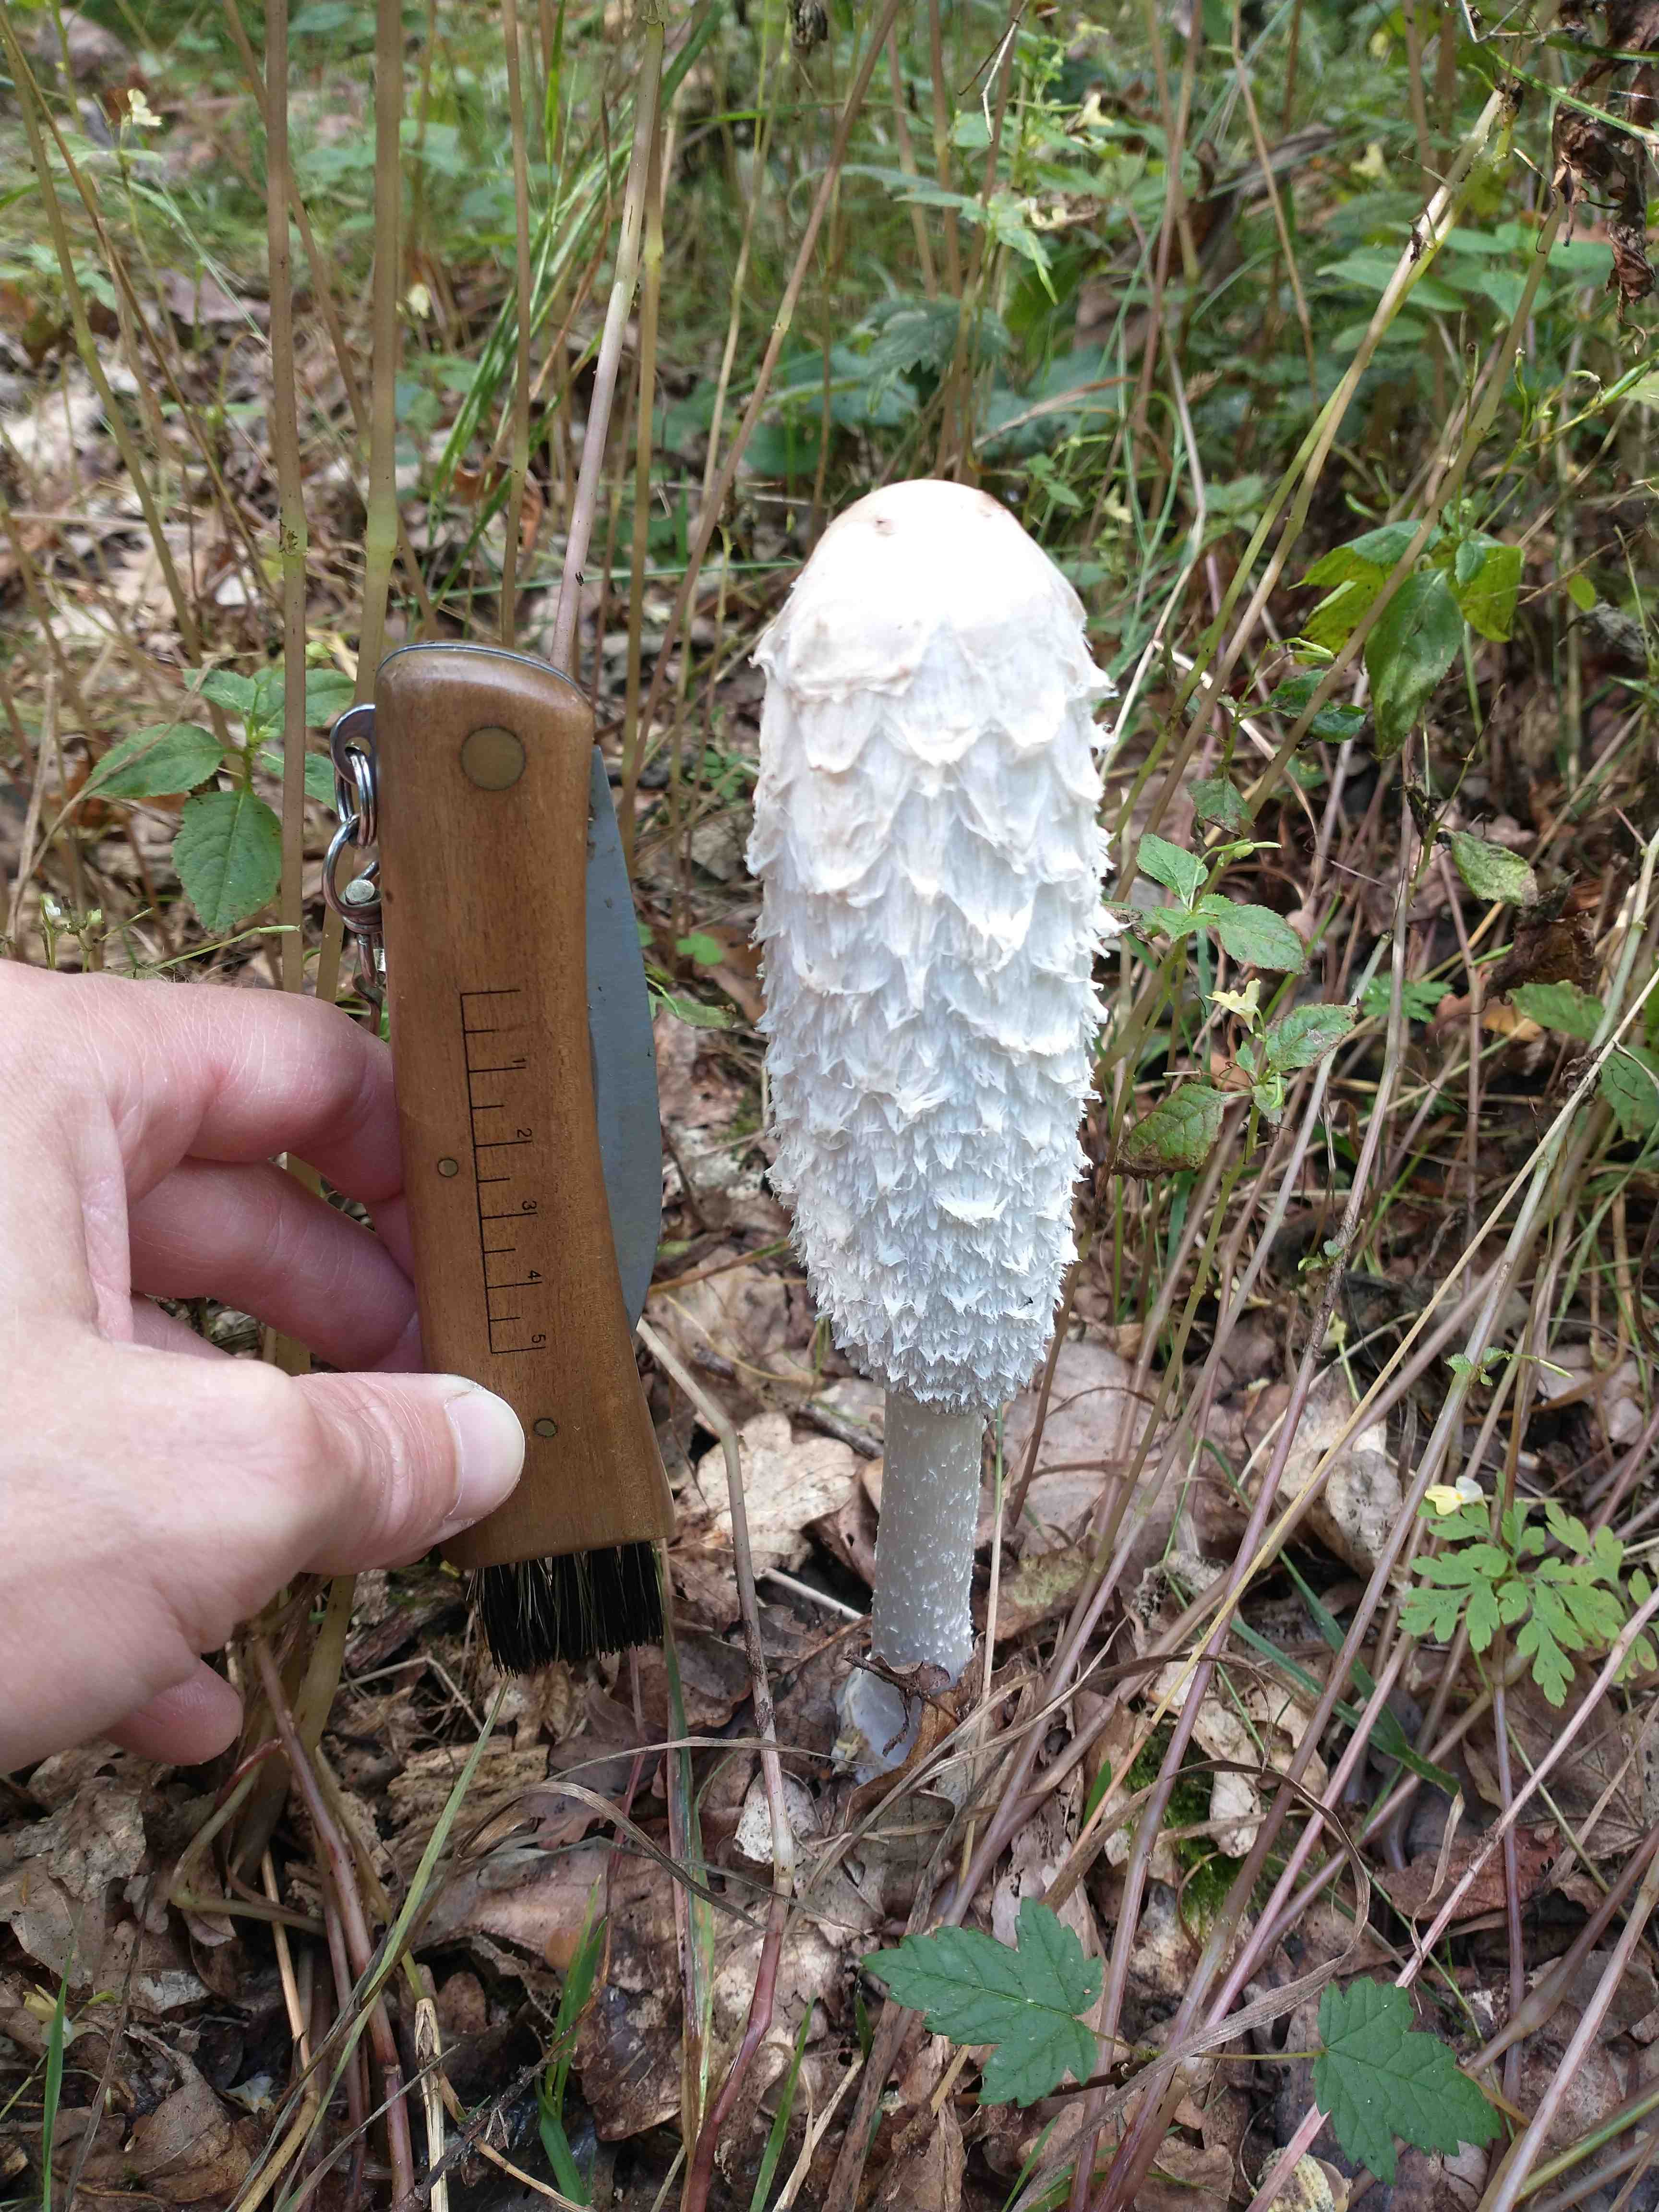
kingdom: Fungi
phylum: Basidiomycota
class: Agaricomycetes
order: Agaricales
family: Agaricaceae
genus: Coprinus
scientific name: Coprinus comatus
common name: stor parykhat
